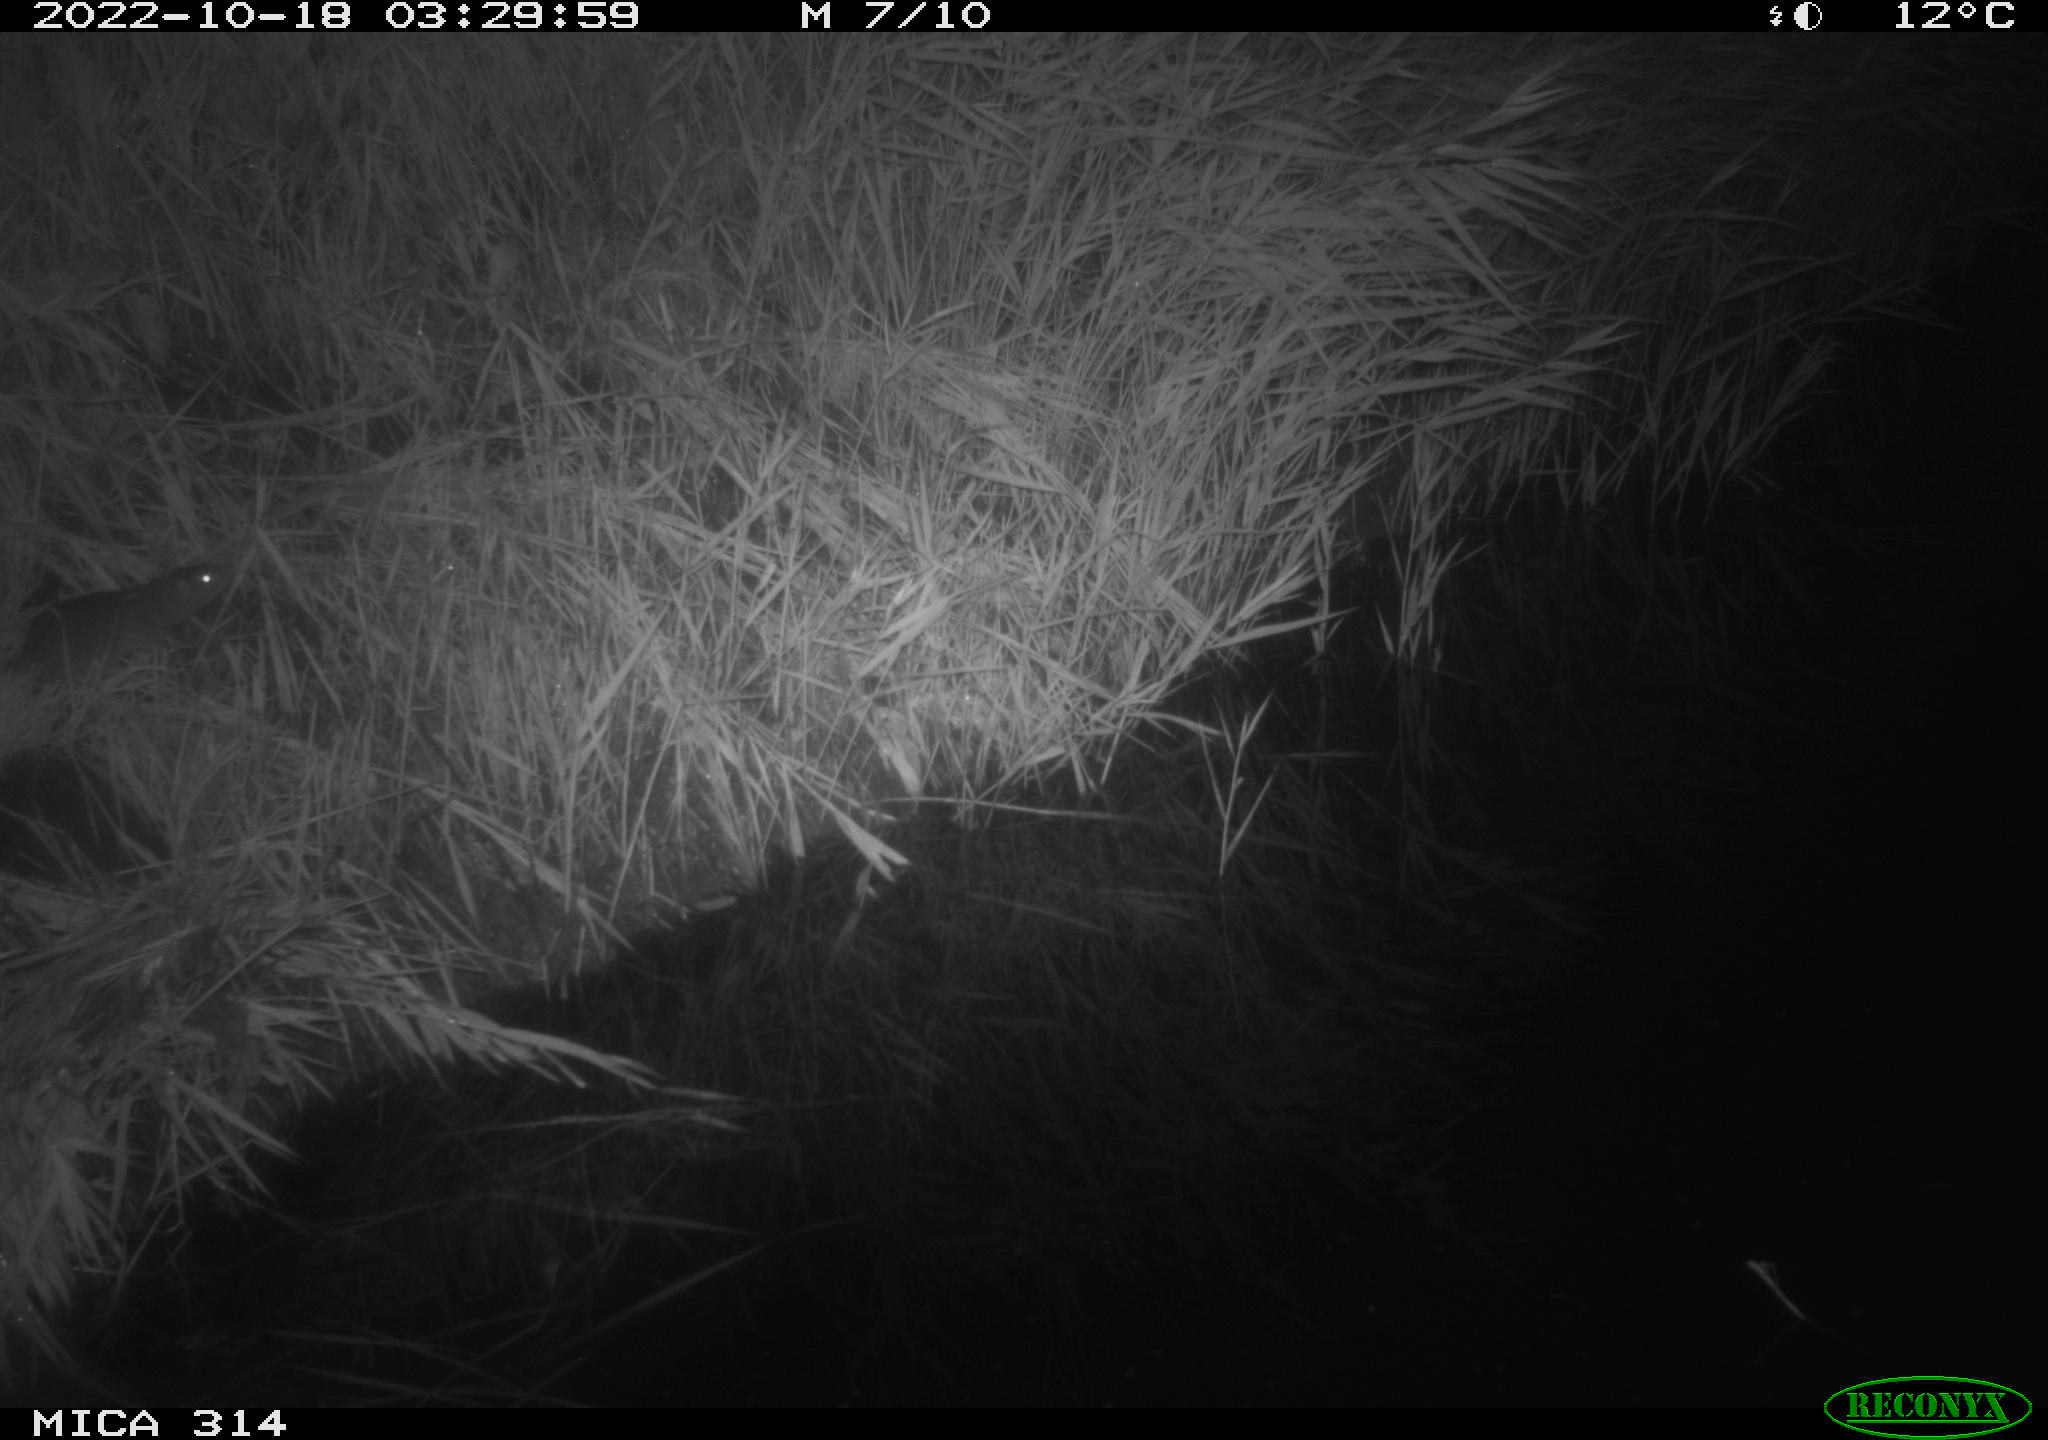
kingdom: Animalia
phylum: Chordata
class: Mammalia
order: Rodentia
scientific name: Rodentia
